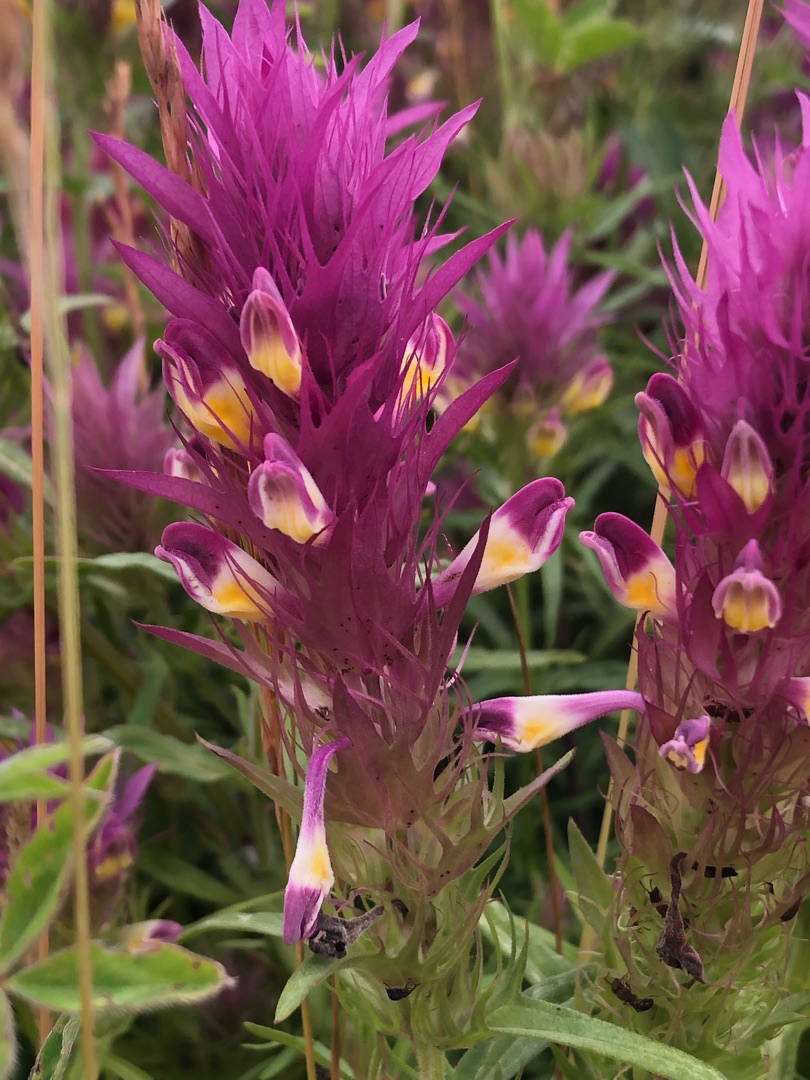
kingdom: Plantae
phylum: Tracheophyta
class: Magnoliopsida
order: Lamiales
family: Orobanchaceae
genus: Melampyrum
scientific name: Melampyrum arvense
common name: Ager-kohvede
